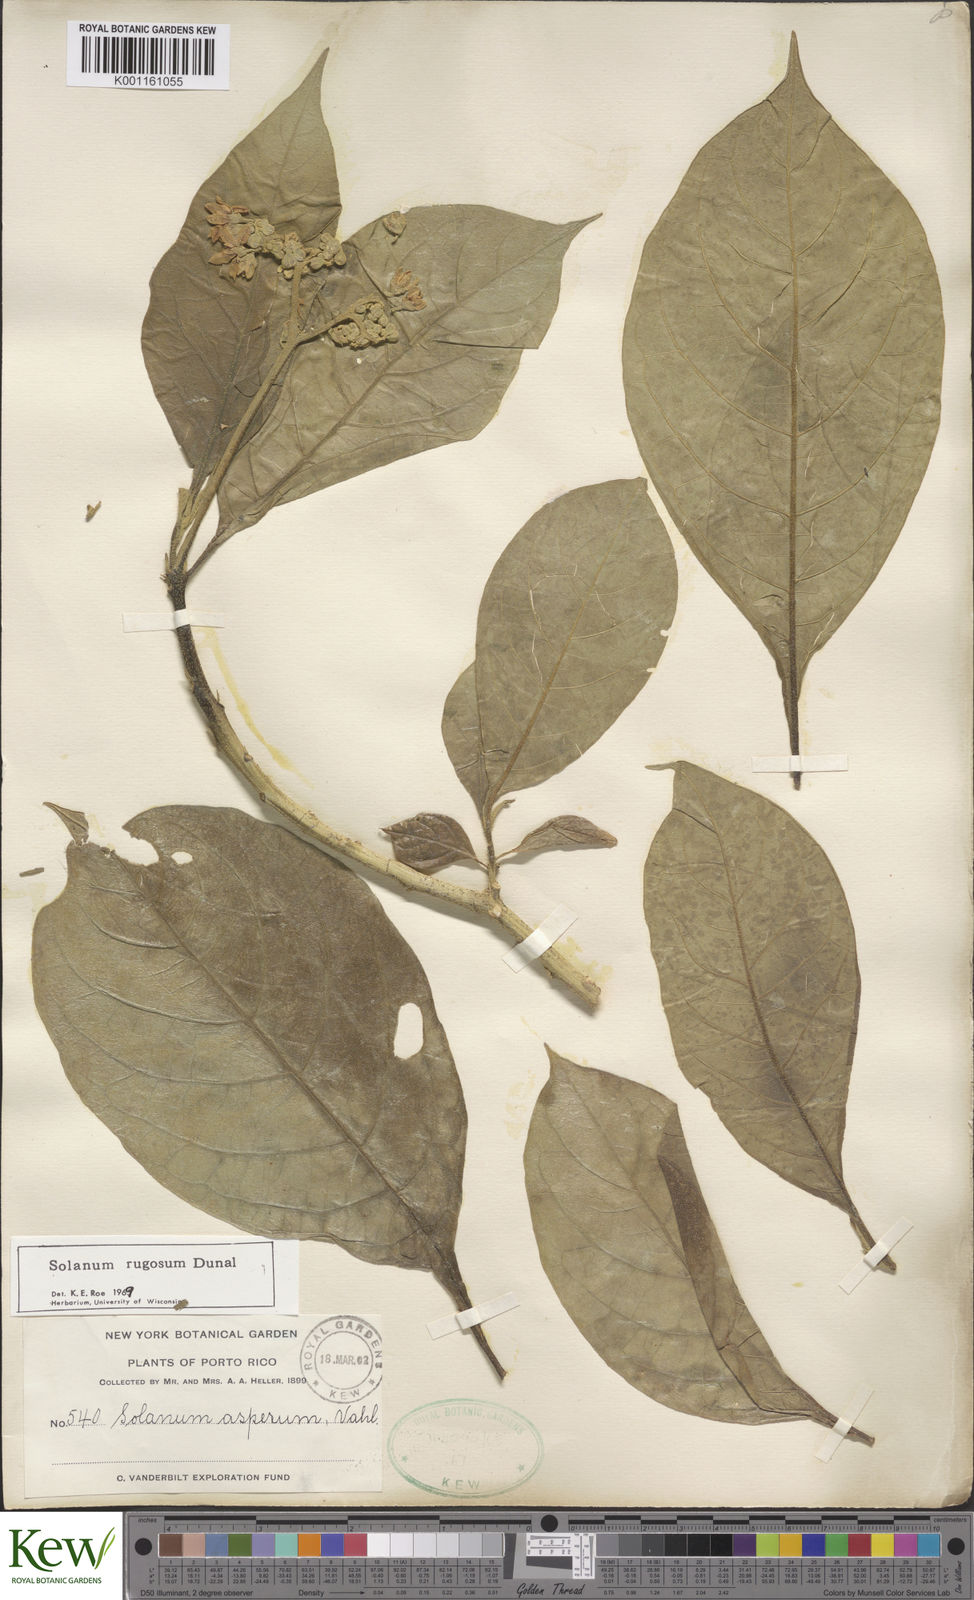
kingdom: Plantae
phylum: Tracheophyta
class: Magnoliopsida
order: Solanales
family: Solanaceae
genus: Solanum
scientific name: Solanum rugosum
